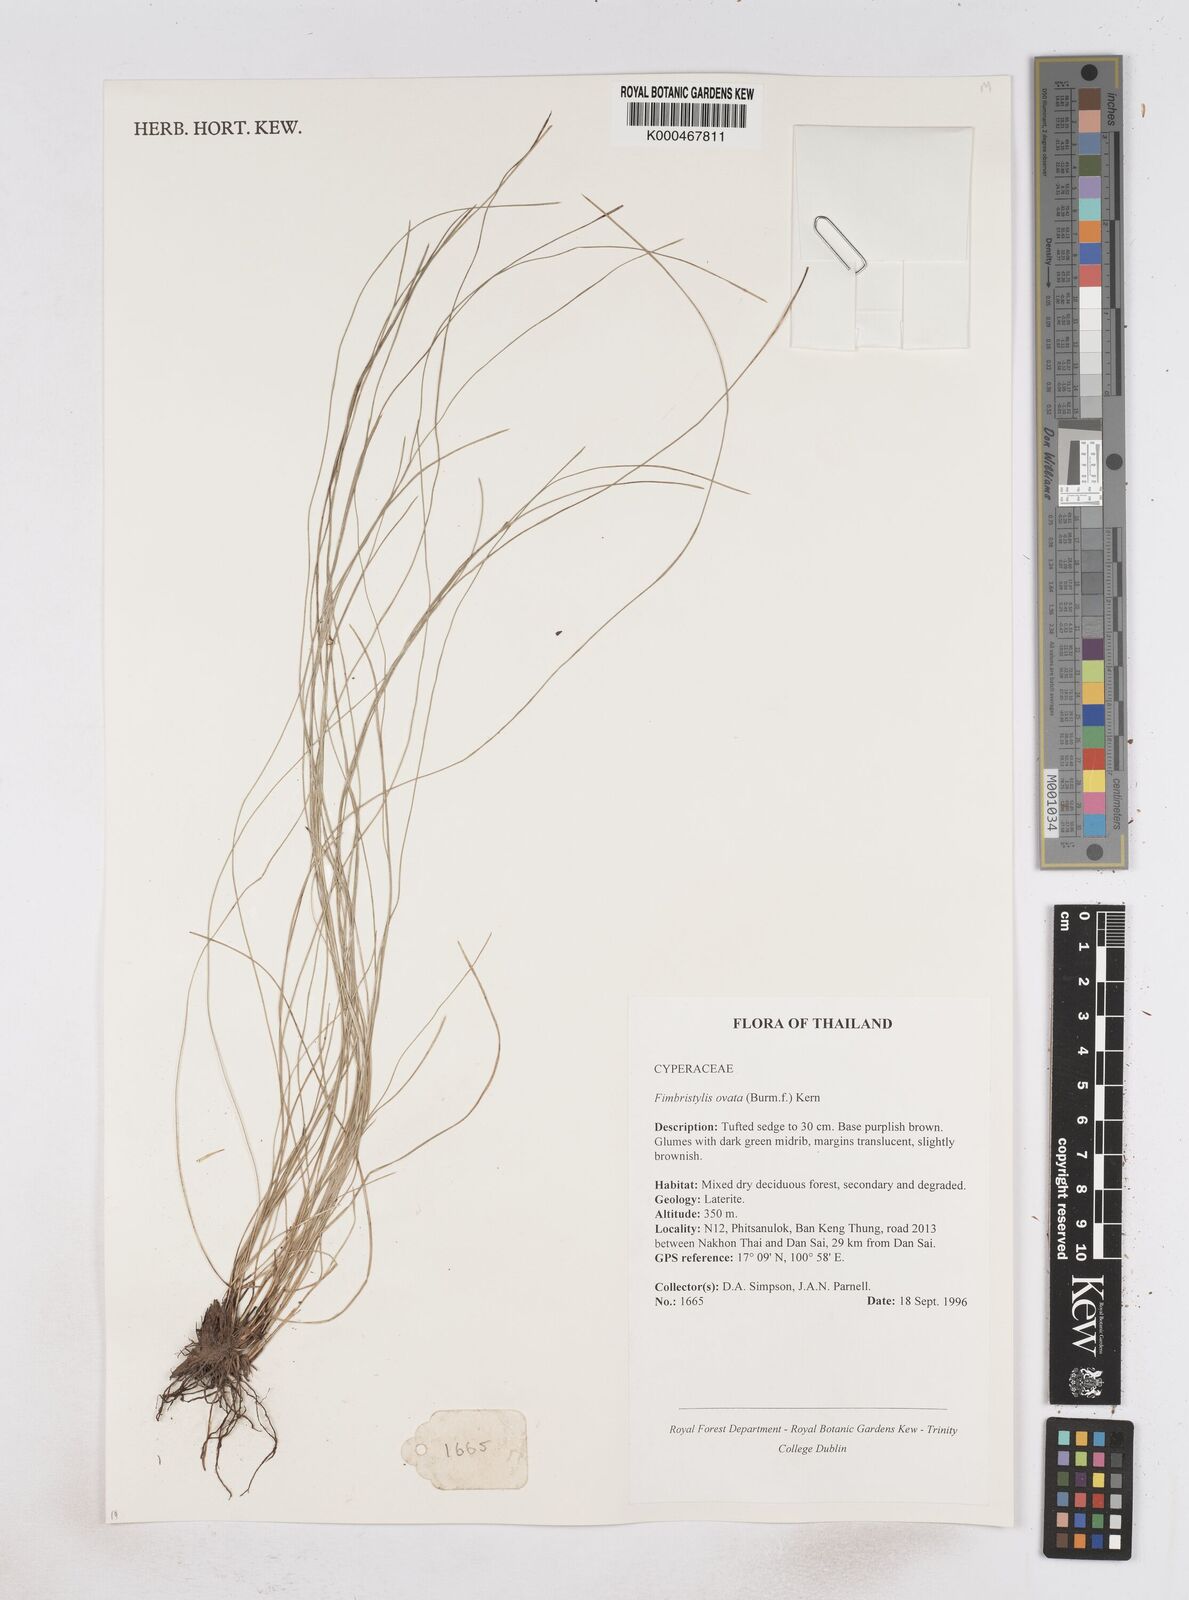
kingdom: Plantae
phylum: Tracheophyta
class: Liliopsida
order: Poales
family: Cyperaceae
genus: Abildgaardia
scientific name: Abildgaardia ovata
